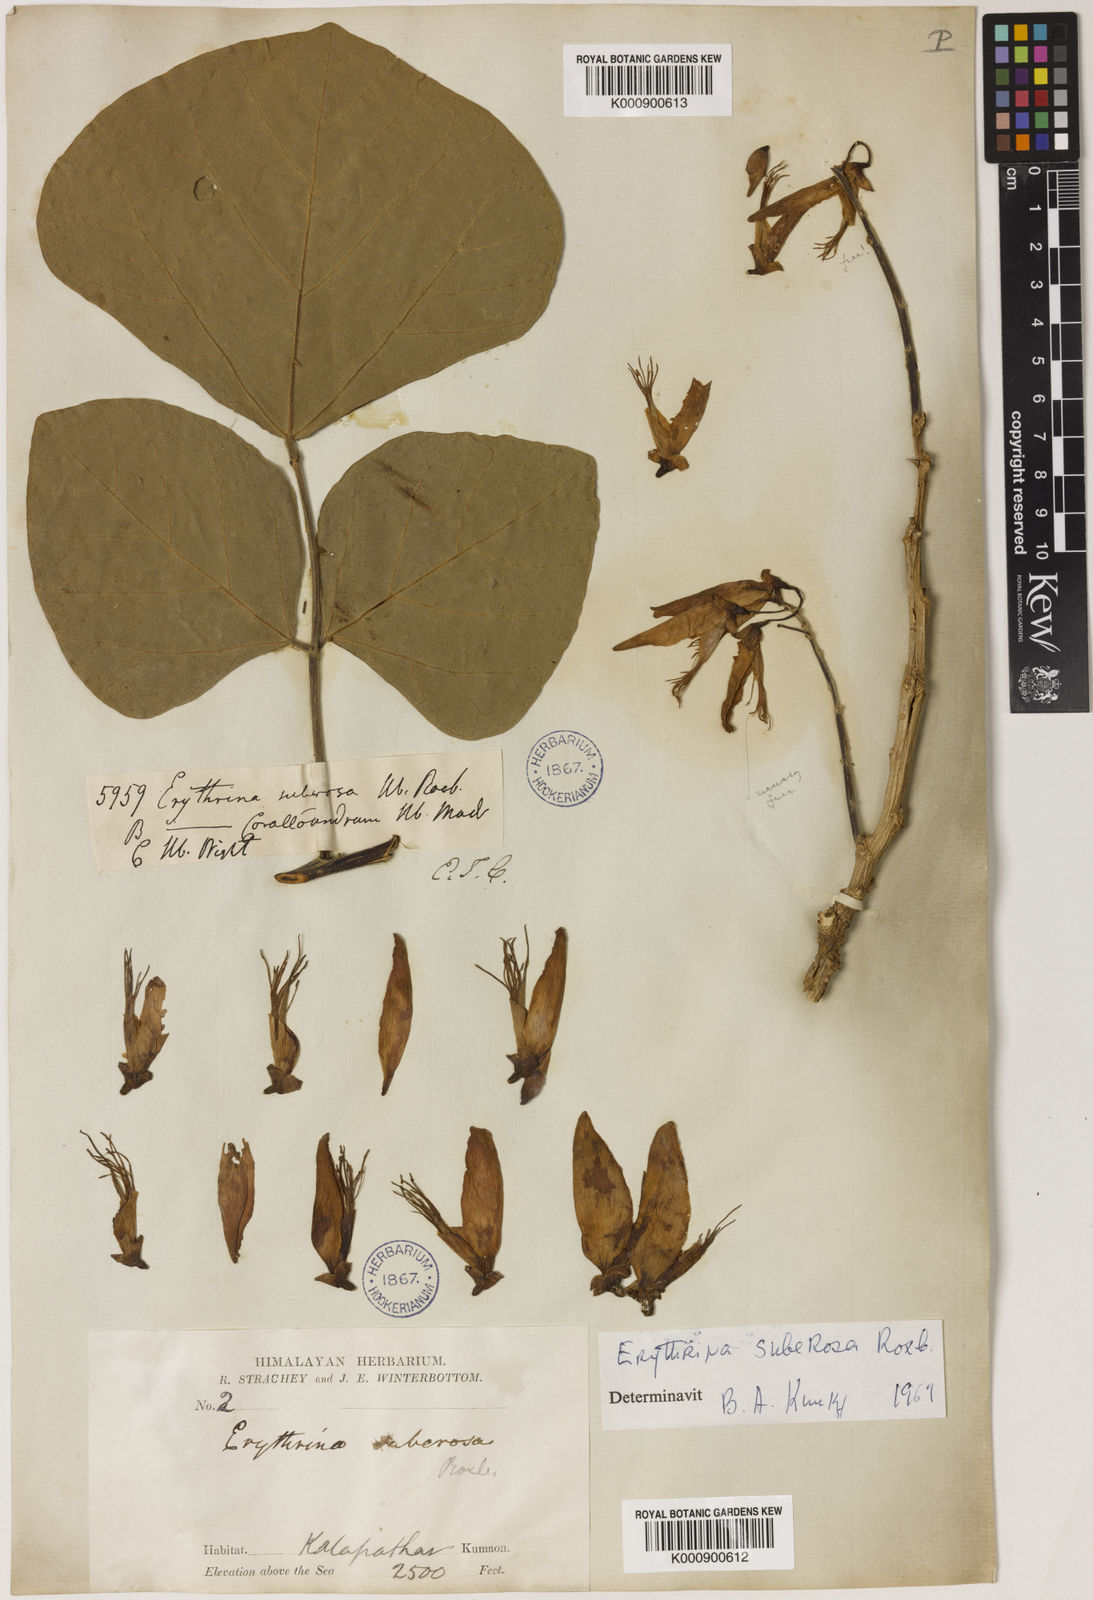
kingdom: Plantae
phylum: Tracheophyta
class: Magnoliopsida
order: Fabales
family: Fabaceae
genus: Erythrina
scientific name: Erythrina suberosa
